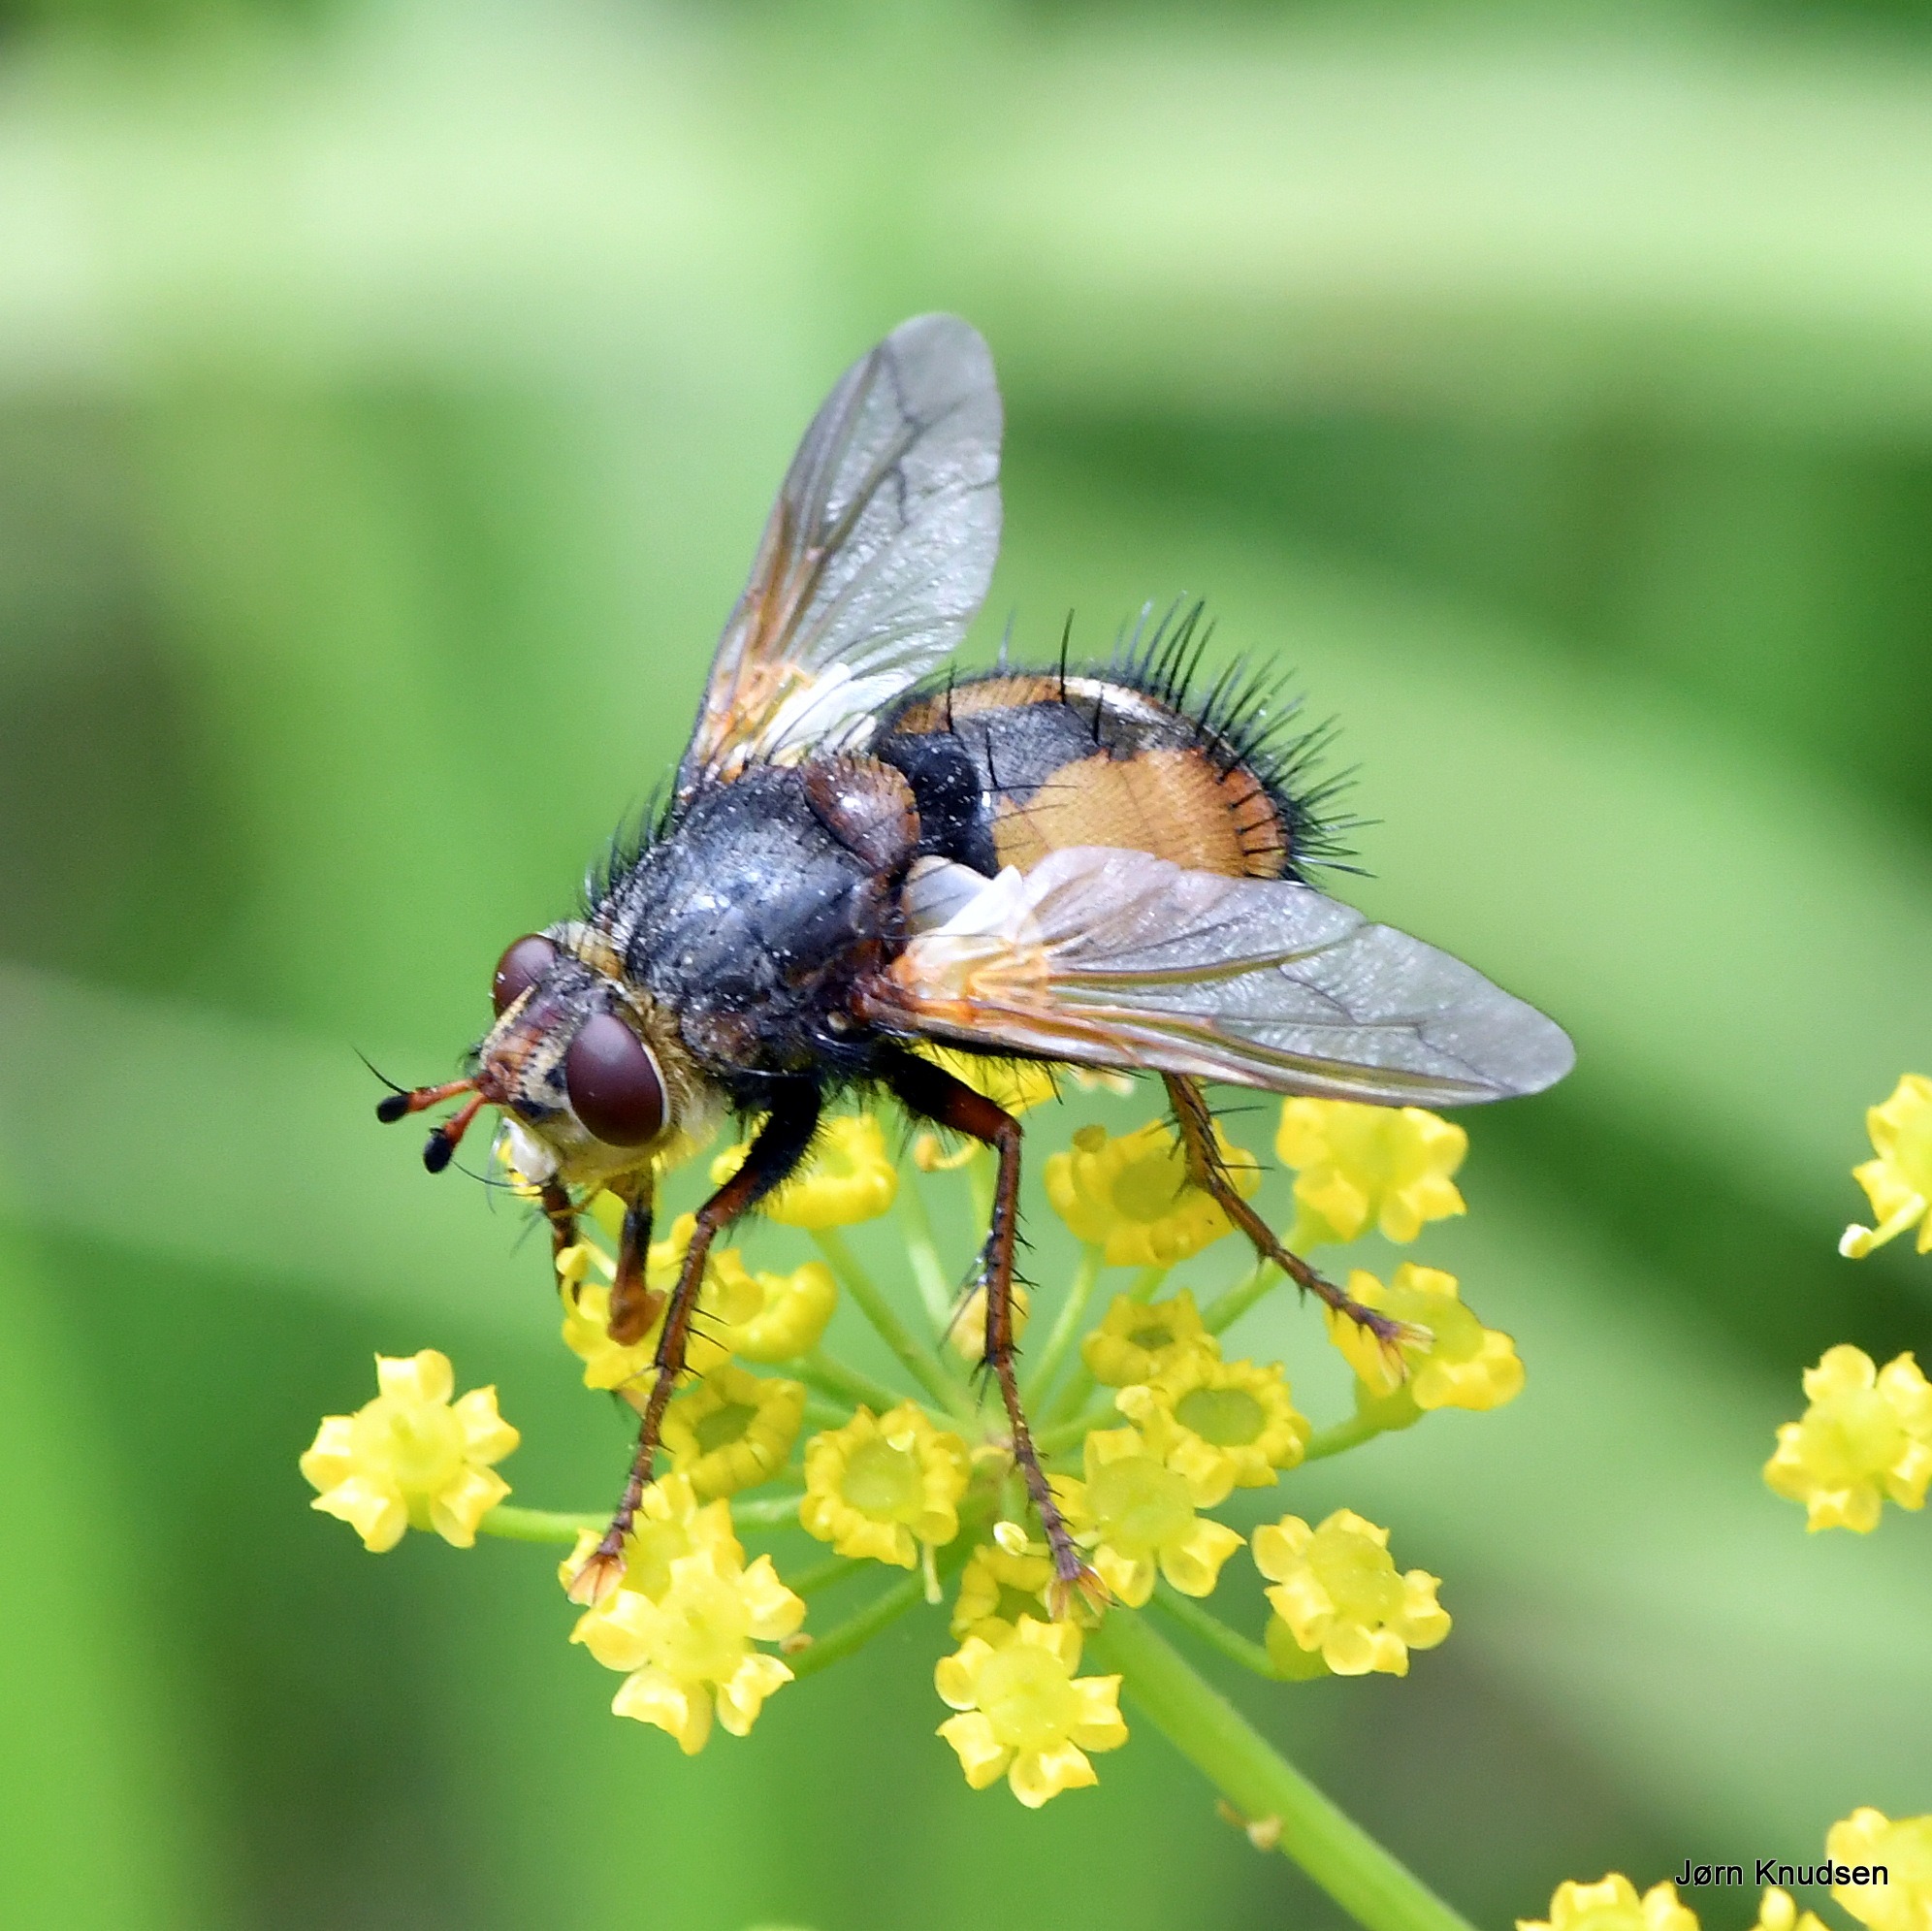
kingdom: Animalia
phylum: Arthropoda
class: Insecta
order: Diptera
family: Tachinidae
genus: Tachina
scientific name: Tachina fera
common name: Mellemfluen oskar
